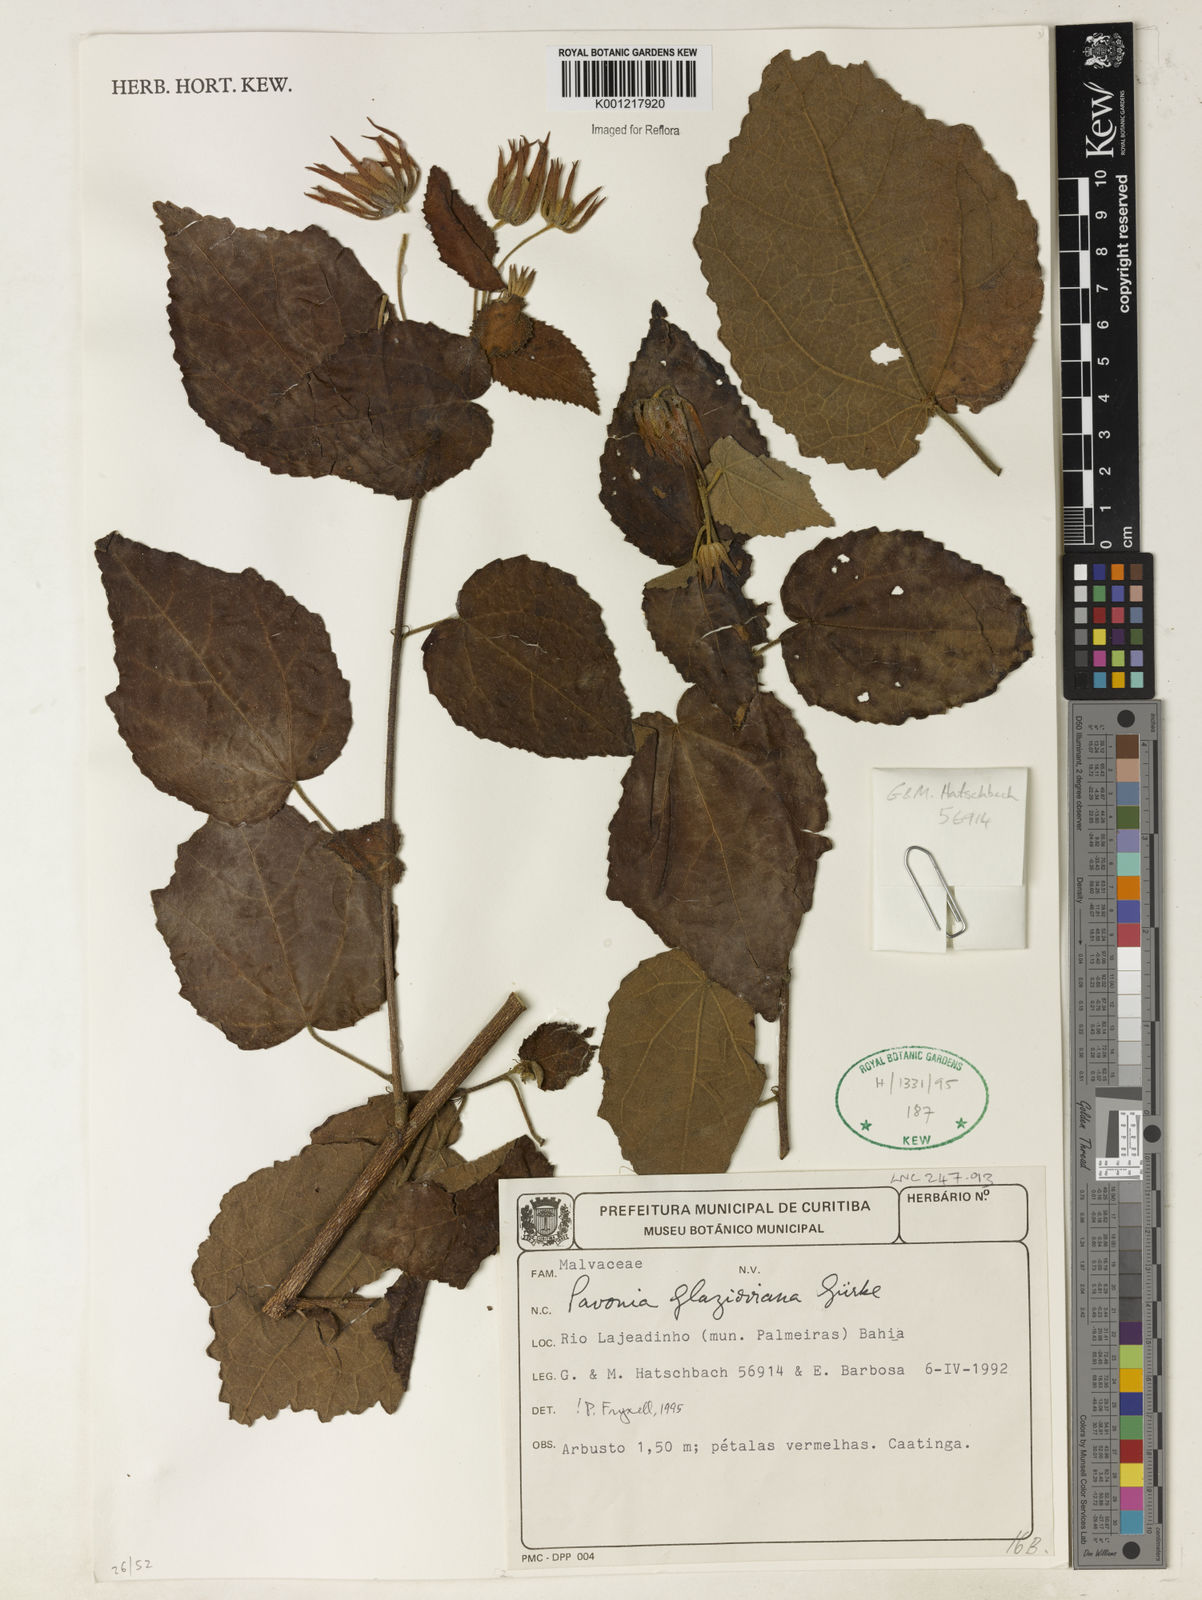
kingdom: Plantae
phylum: Tracheophyta
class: Magnoliopsida
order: Malvales
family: Malvaceae
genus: Pavonia
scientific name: Pavonia
